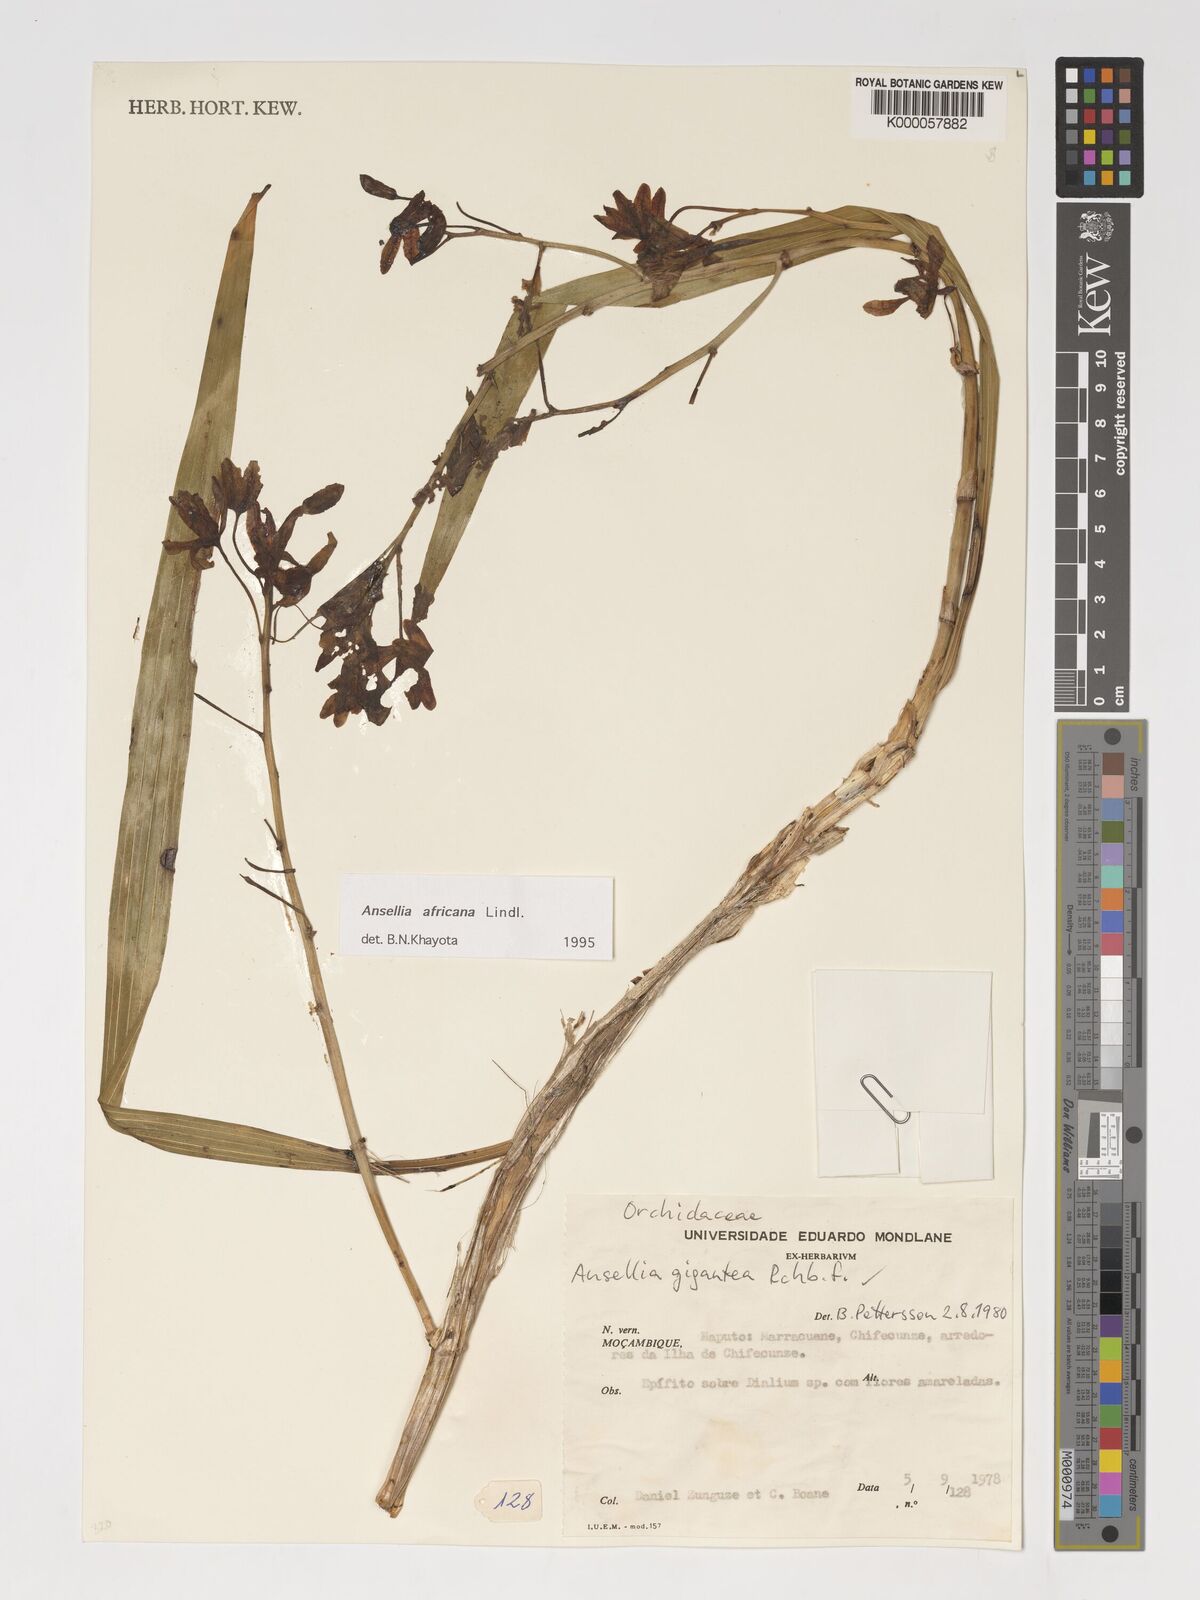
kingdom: Plantae
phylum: Tracheophyta
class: Liliopsida
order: Asparagales
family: Orchidaceae
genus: Ansellia
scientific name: Ansellia africana
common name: African ansellia
